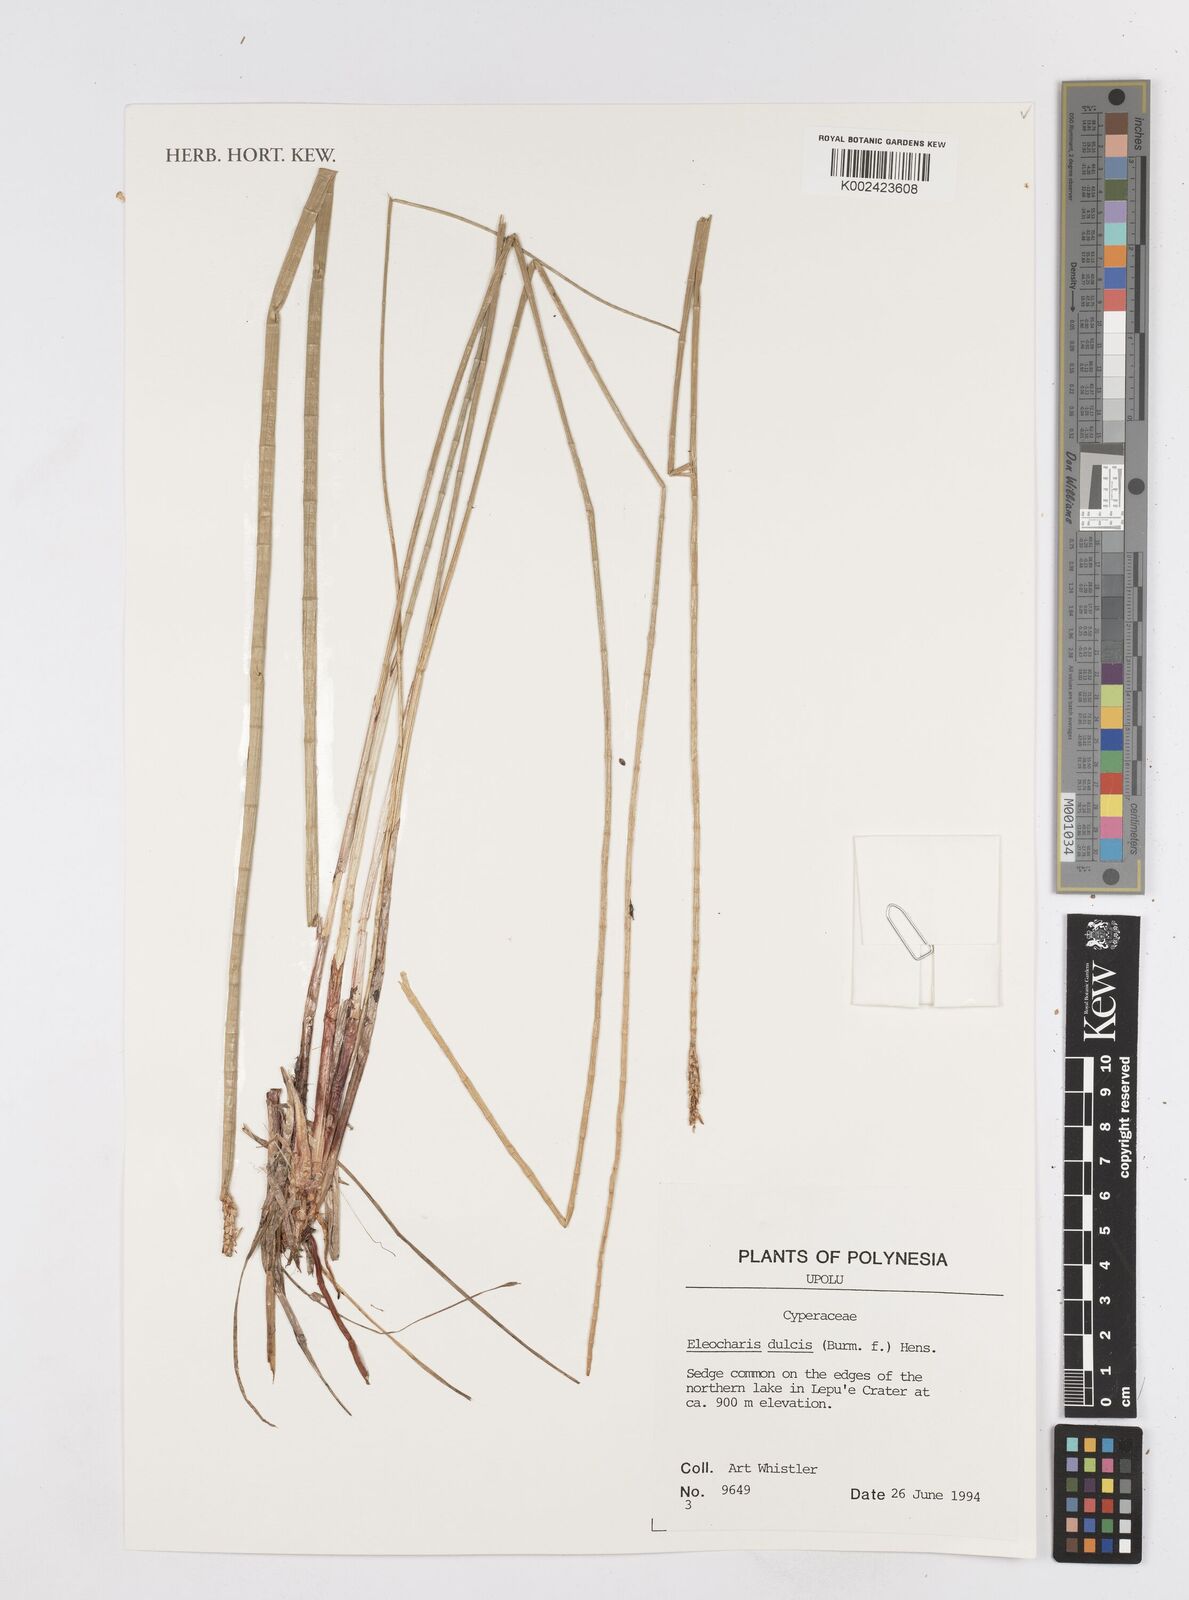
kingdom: Plantae
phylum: Tracheophyta
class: Liliopsida
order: Poales
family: Cyperaceae
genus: Eleocharis
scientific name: Eleocharis dulcis
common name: Chinese water chestnut
